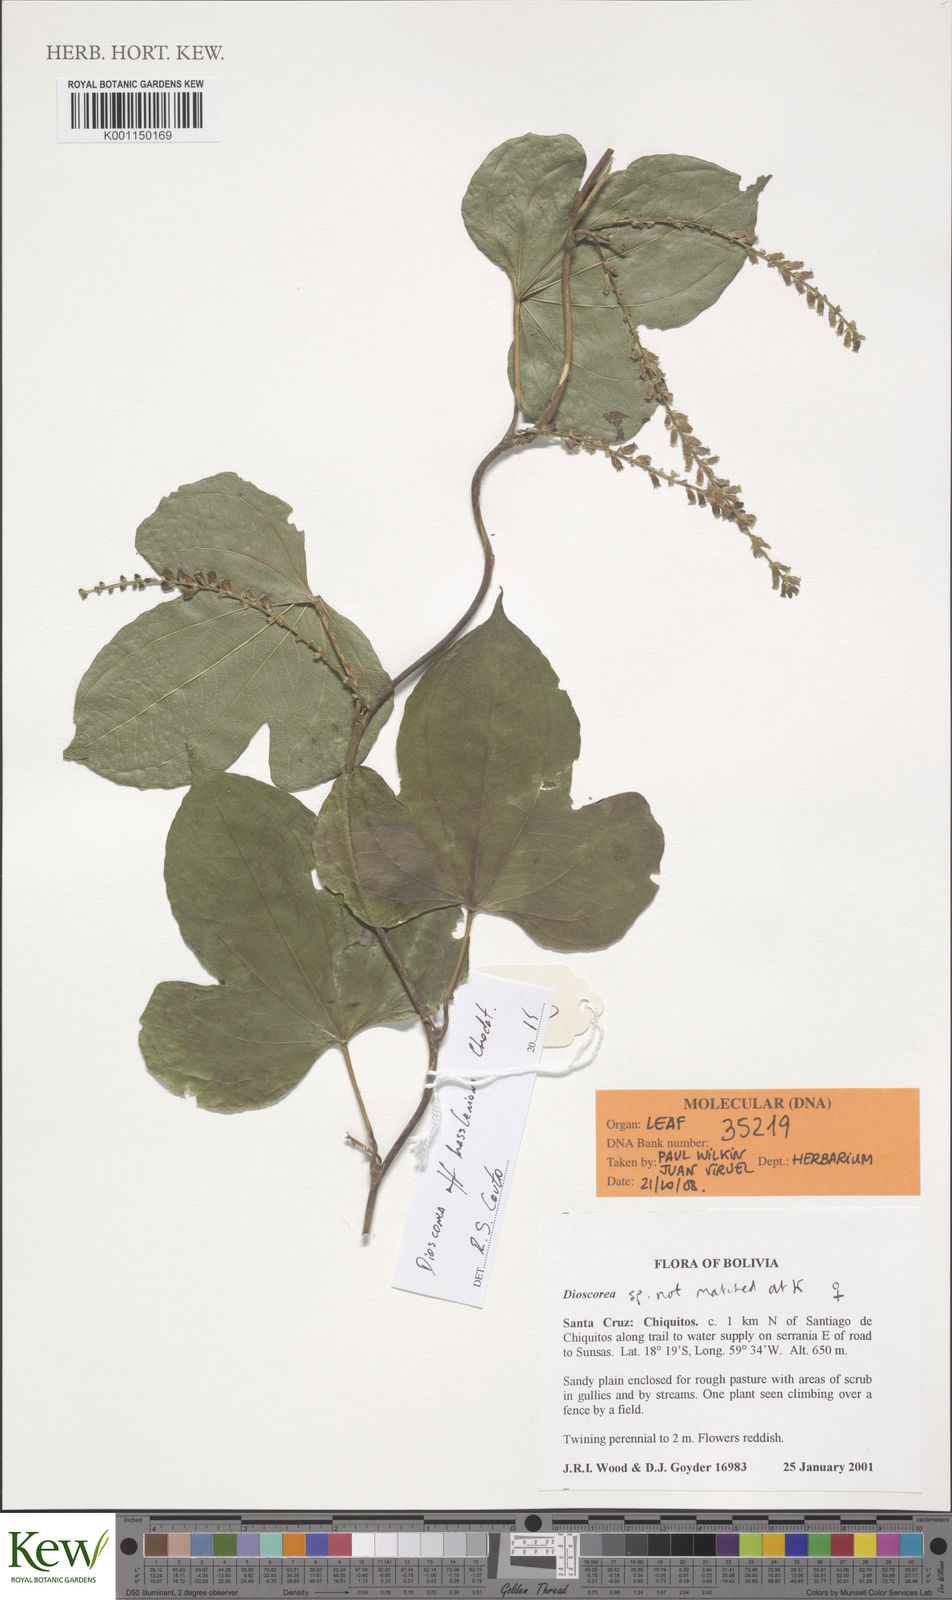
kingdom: Plantae
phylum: Tracheophyta
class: Liliopsida
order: Dioscoreales
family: Dioscoreaceae
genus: Dioscorea
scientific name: Dioscorea hassleriana
